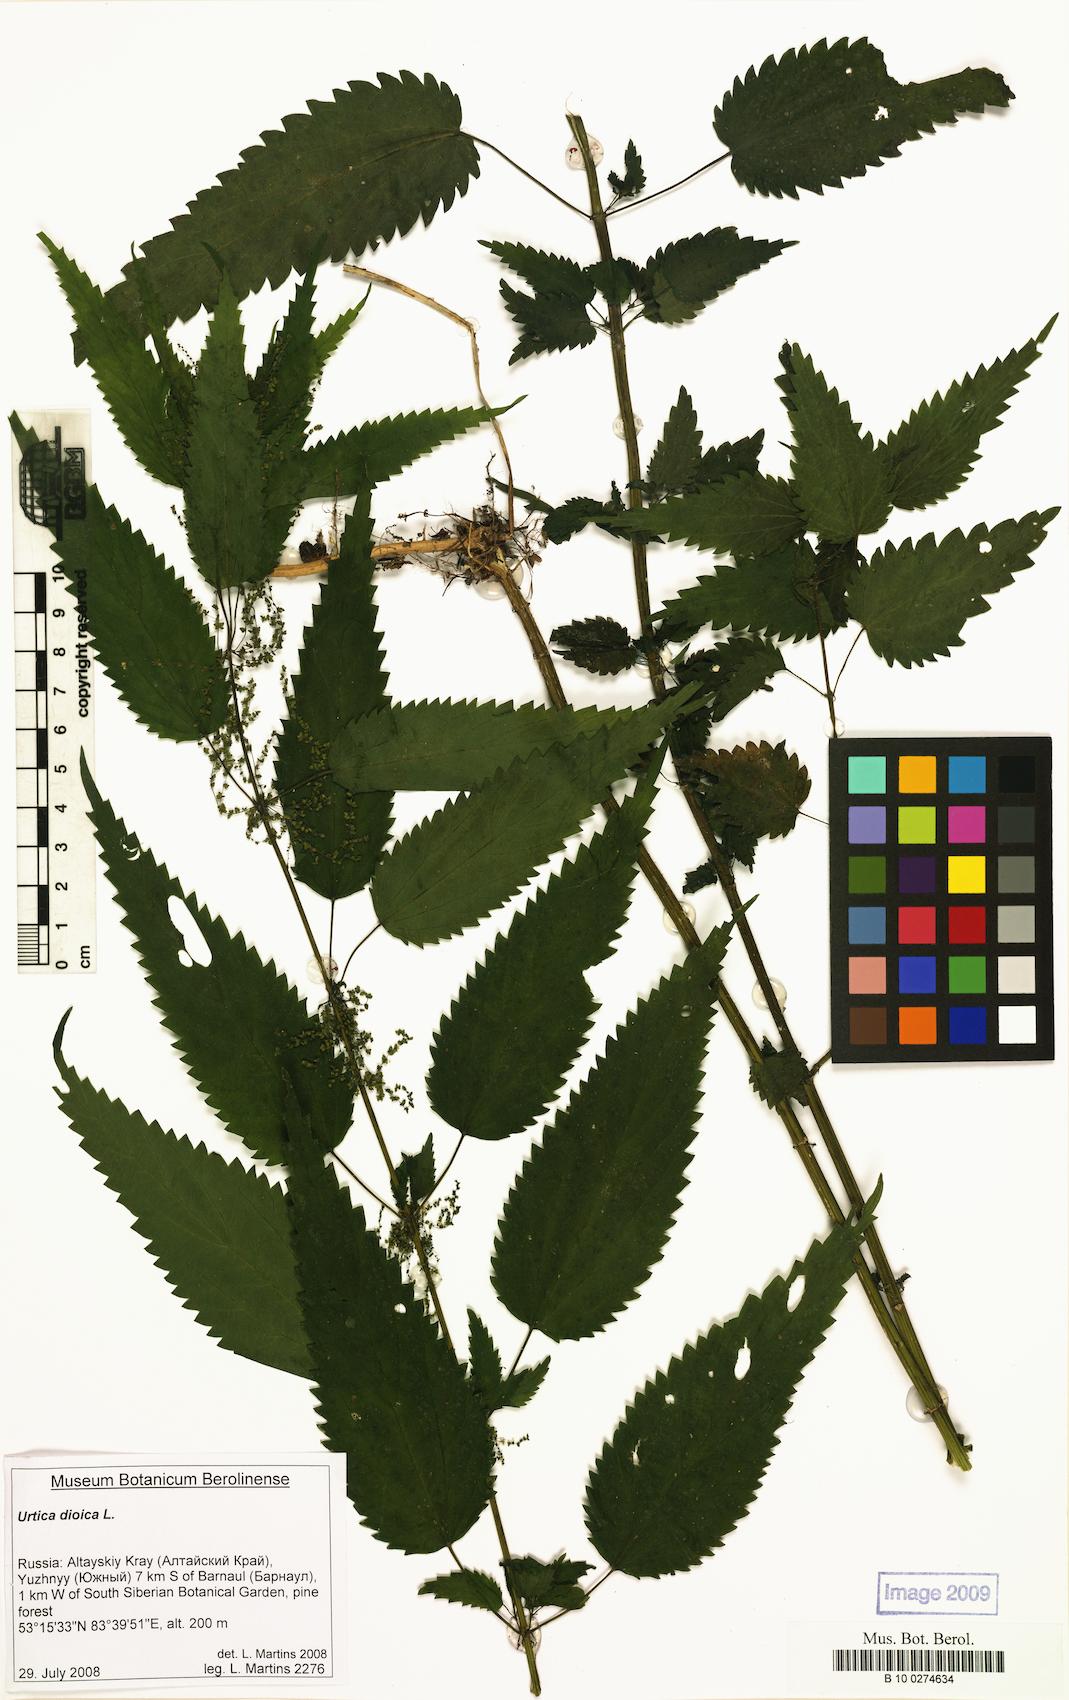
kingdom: Plantae
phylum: Tracheophyta
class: Magnoliopsida
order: Rosales
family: Urticaceae
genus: Urtica
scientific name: Urtica dioica
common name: Common nettle
